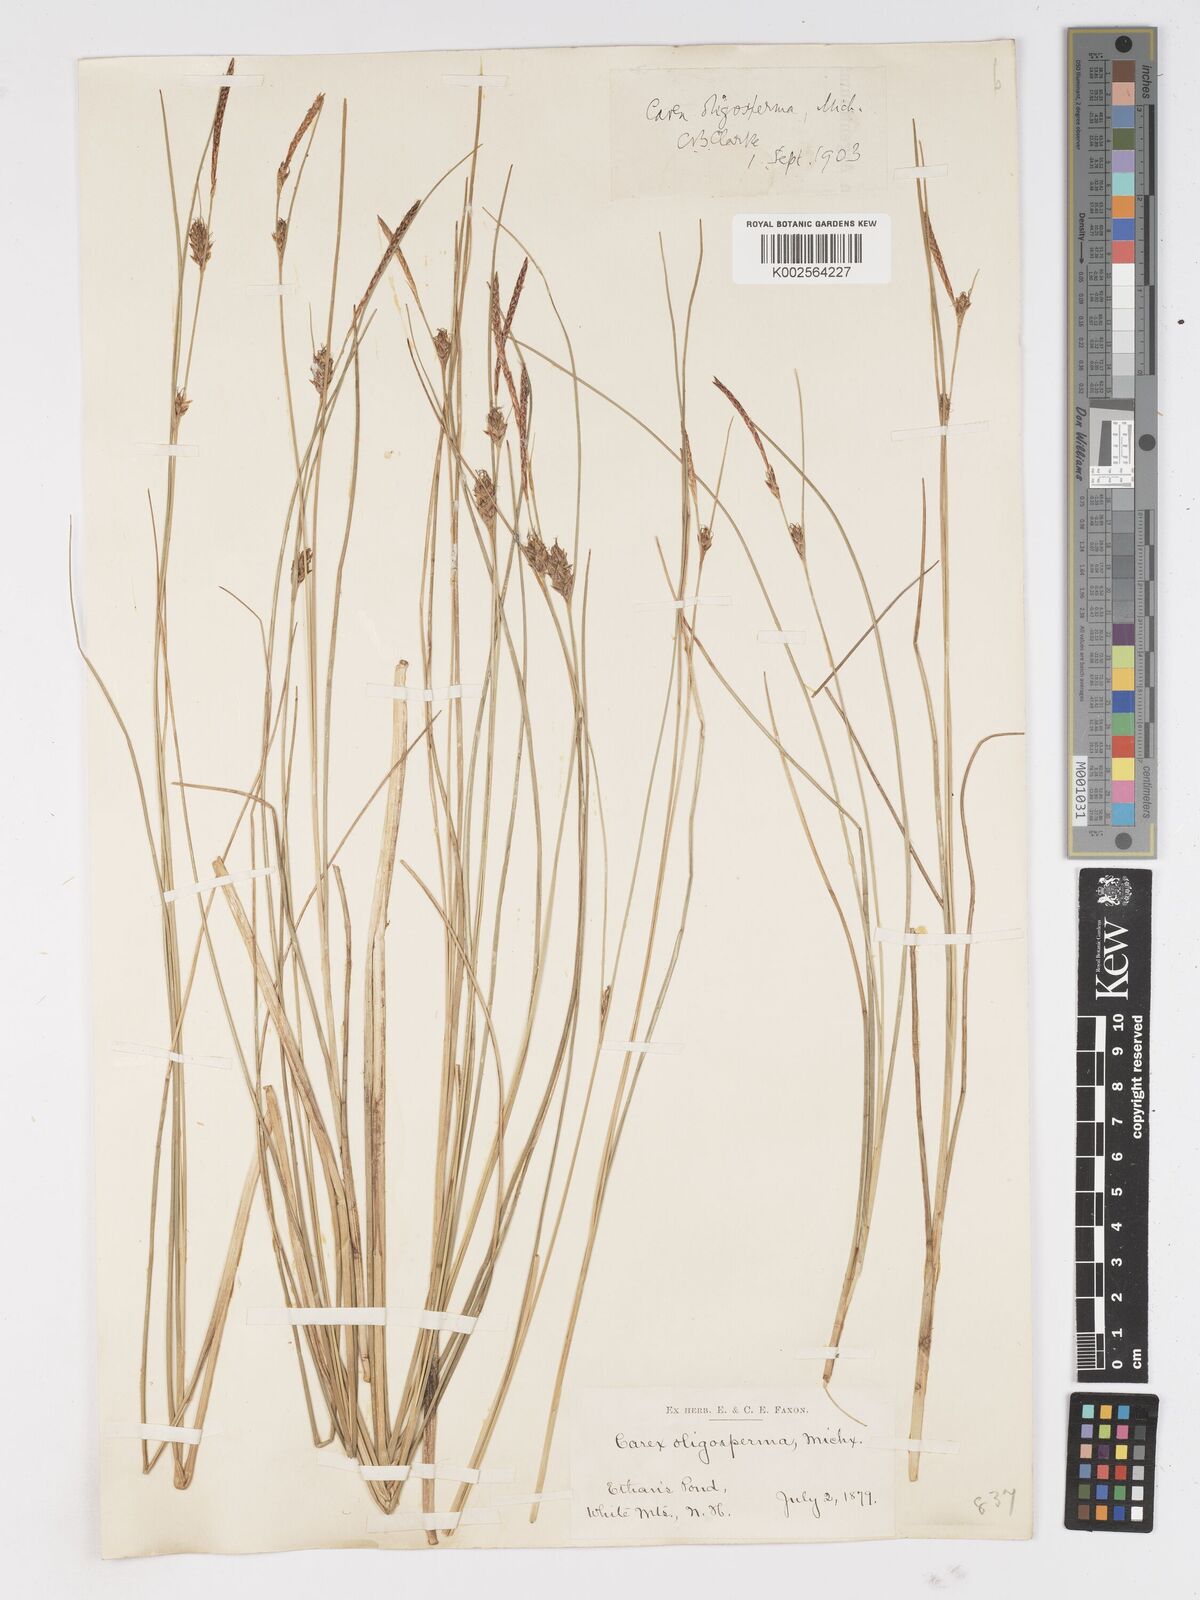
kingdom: Plantae
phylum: Tracheophyta
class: Liliopsida
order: Poales
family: Cyperaceae
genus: Carex
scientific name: Carex oligosperma
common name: Few-seed sedge
